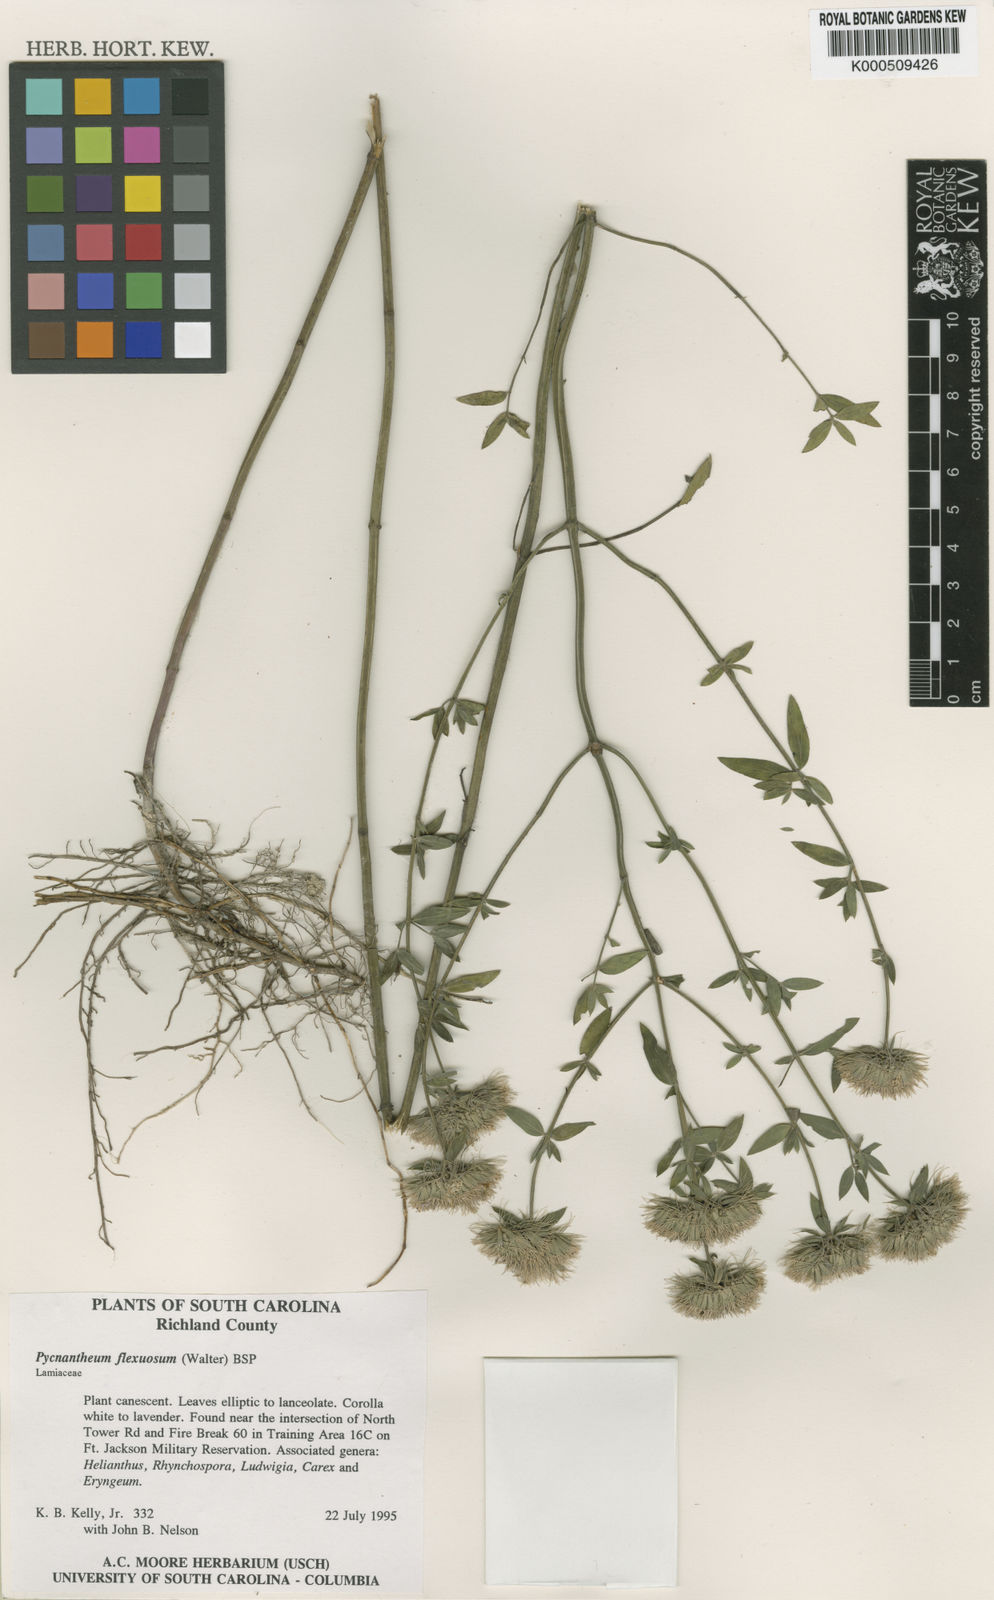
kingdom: Plantae
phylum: Tracheophyta
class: Magnoliopsida
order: Lamiales
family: Lamiaceae
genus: Pycnanthemum
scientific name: Pycnanthemum flexuosum
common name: Appalachian mountain-mint
